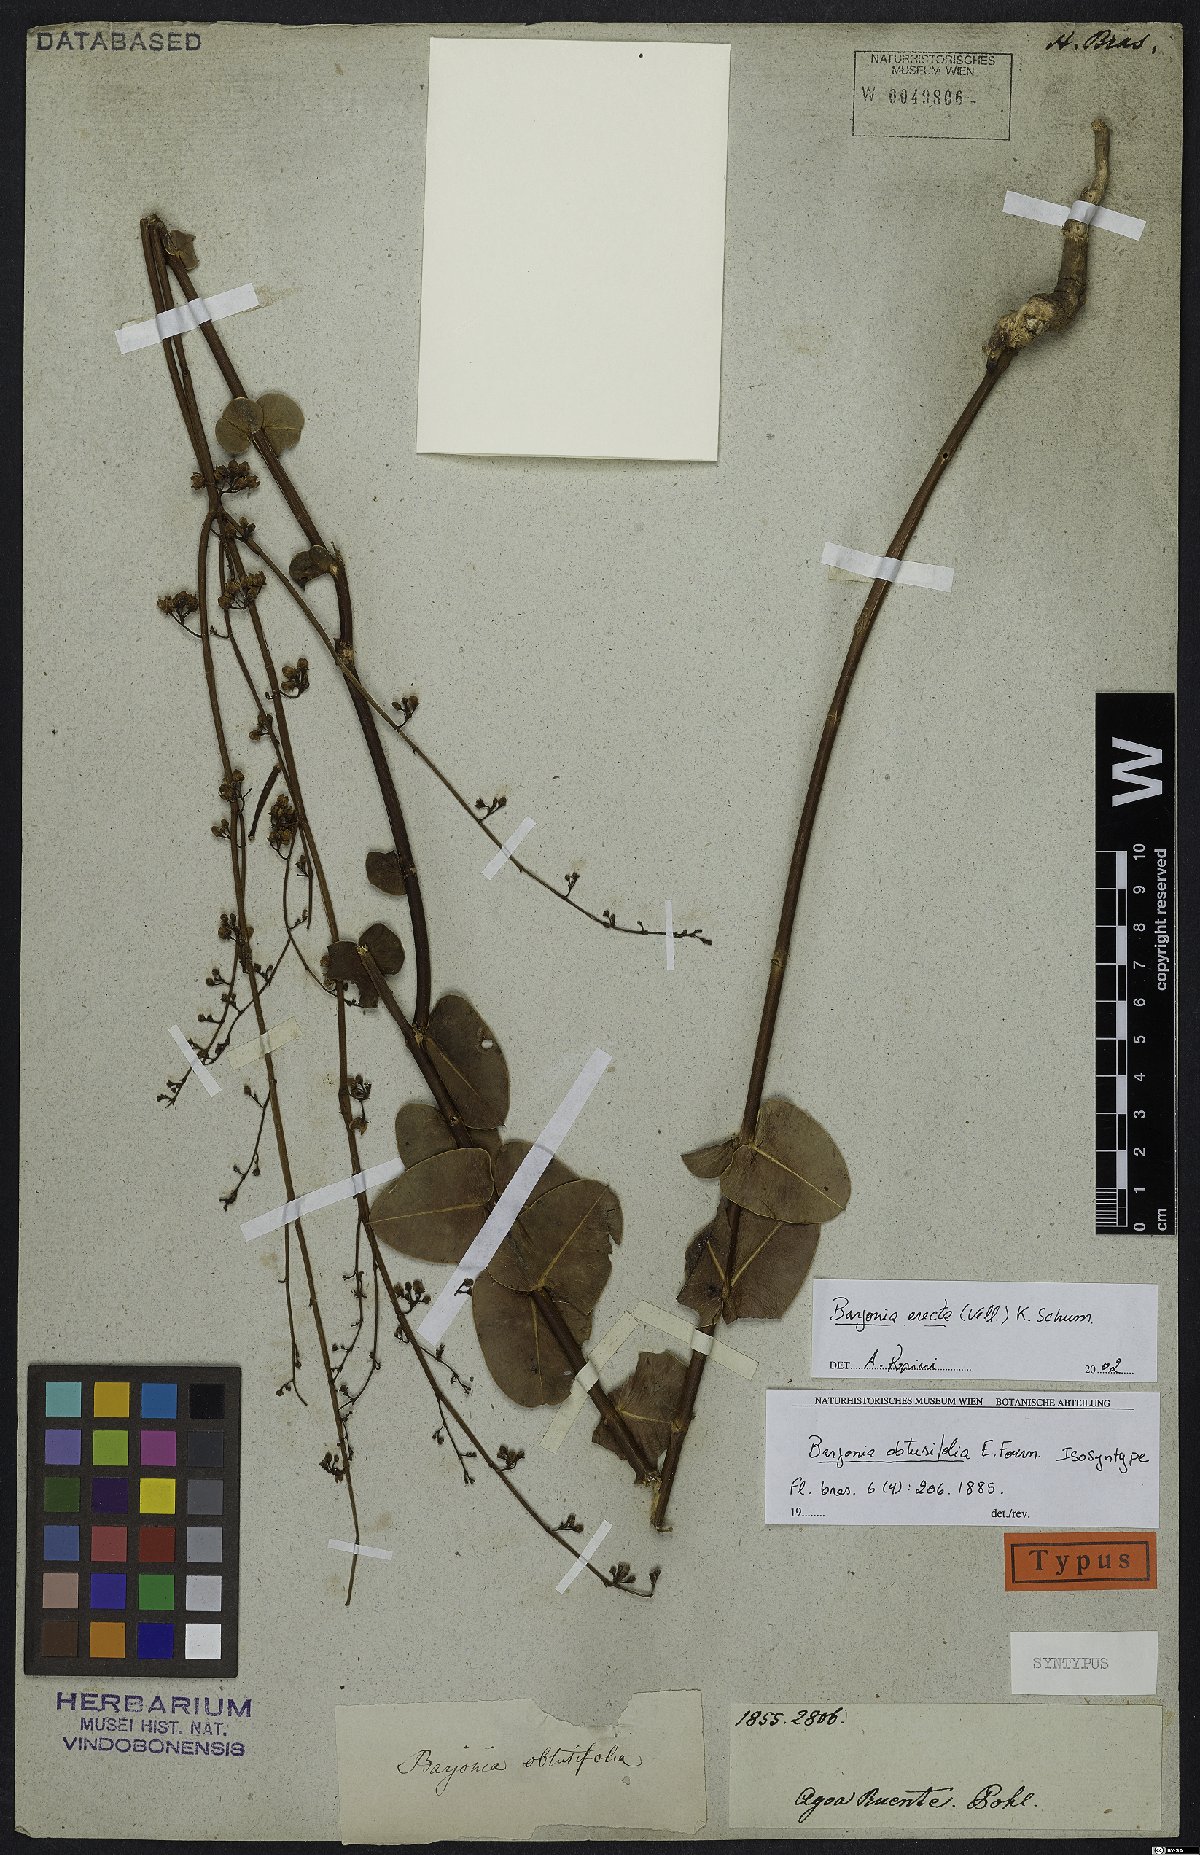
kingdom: Plantae
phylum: Tracheophyta
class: Magnoliopsida
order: Gentianales
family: Apocynaceae
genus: Barjonia
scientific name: Barjonia erecta
